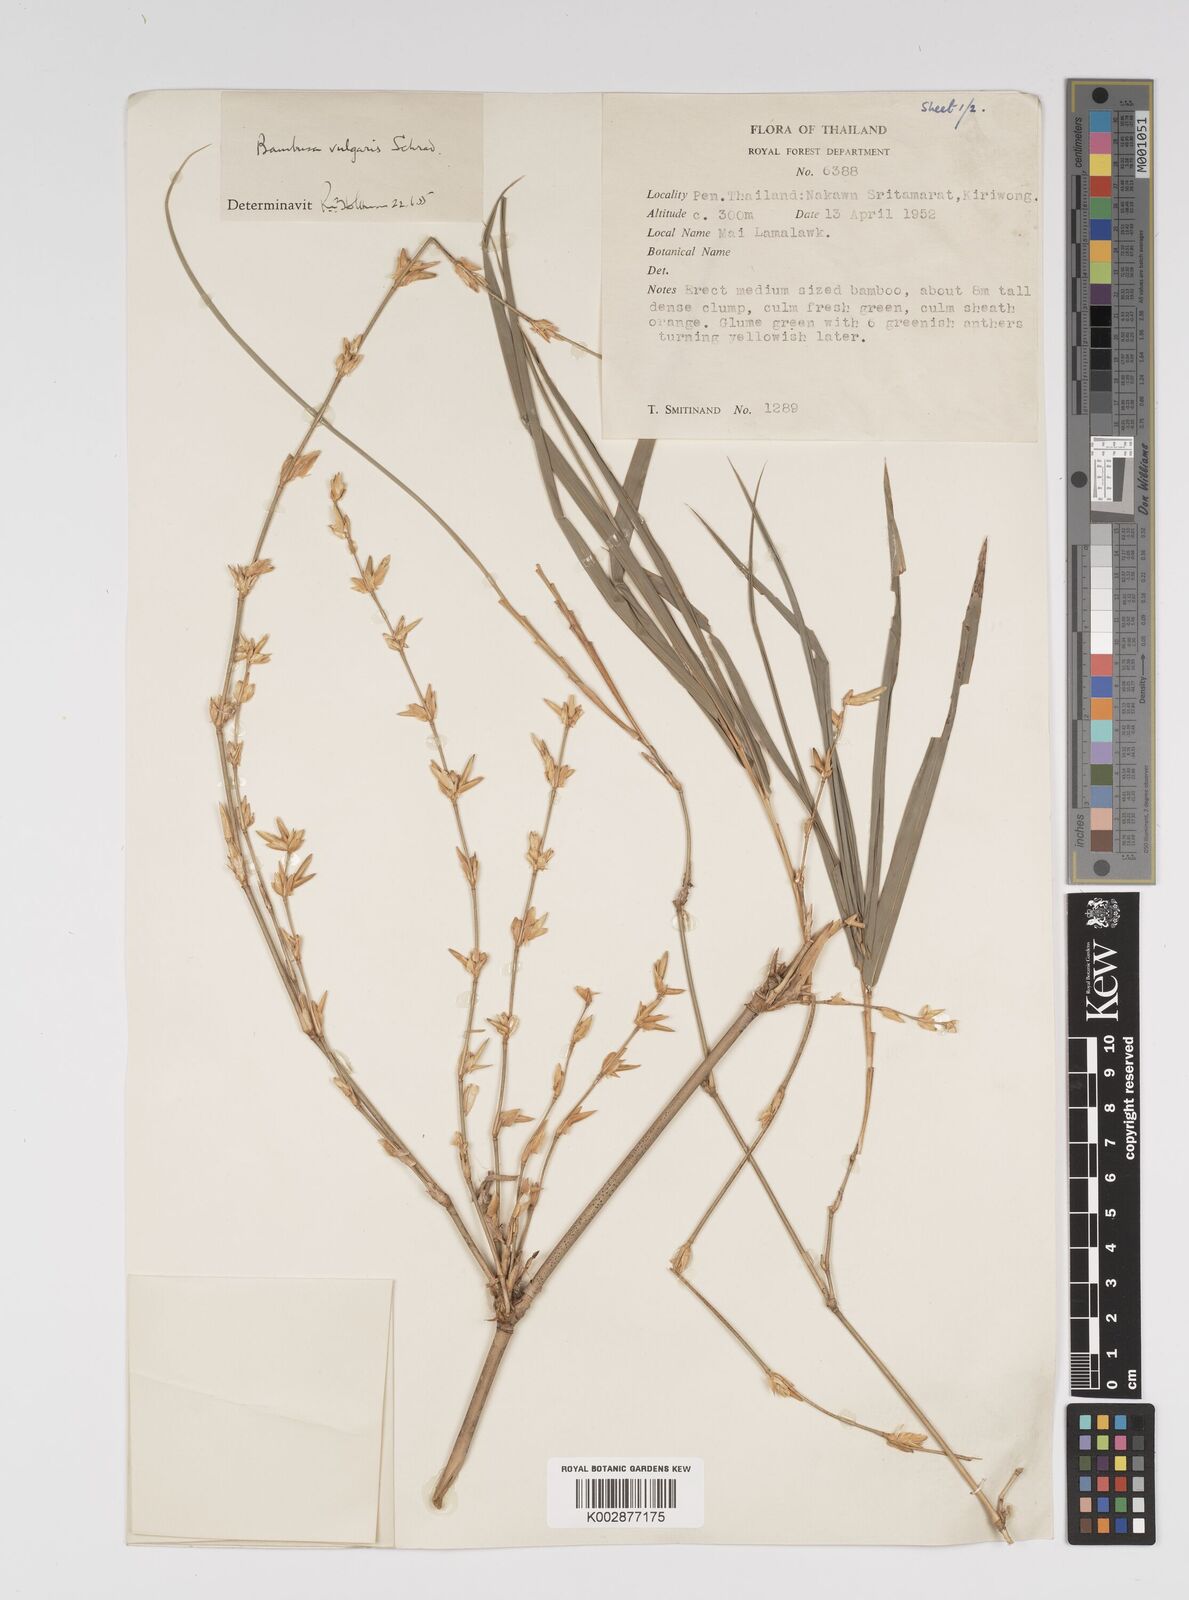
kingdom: Plantae
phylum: Tracheophyta
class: Liliopsida
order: Poales
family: Poaceae
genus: Bambusa
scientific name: Bambusa balcooa
